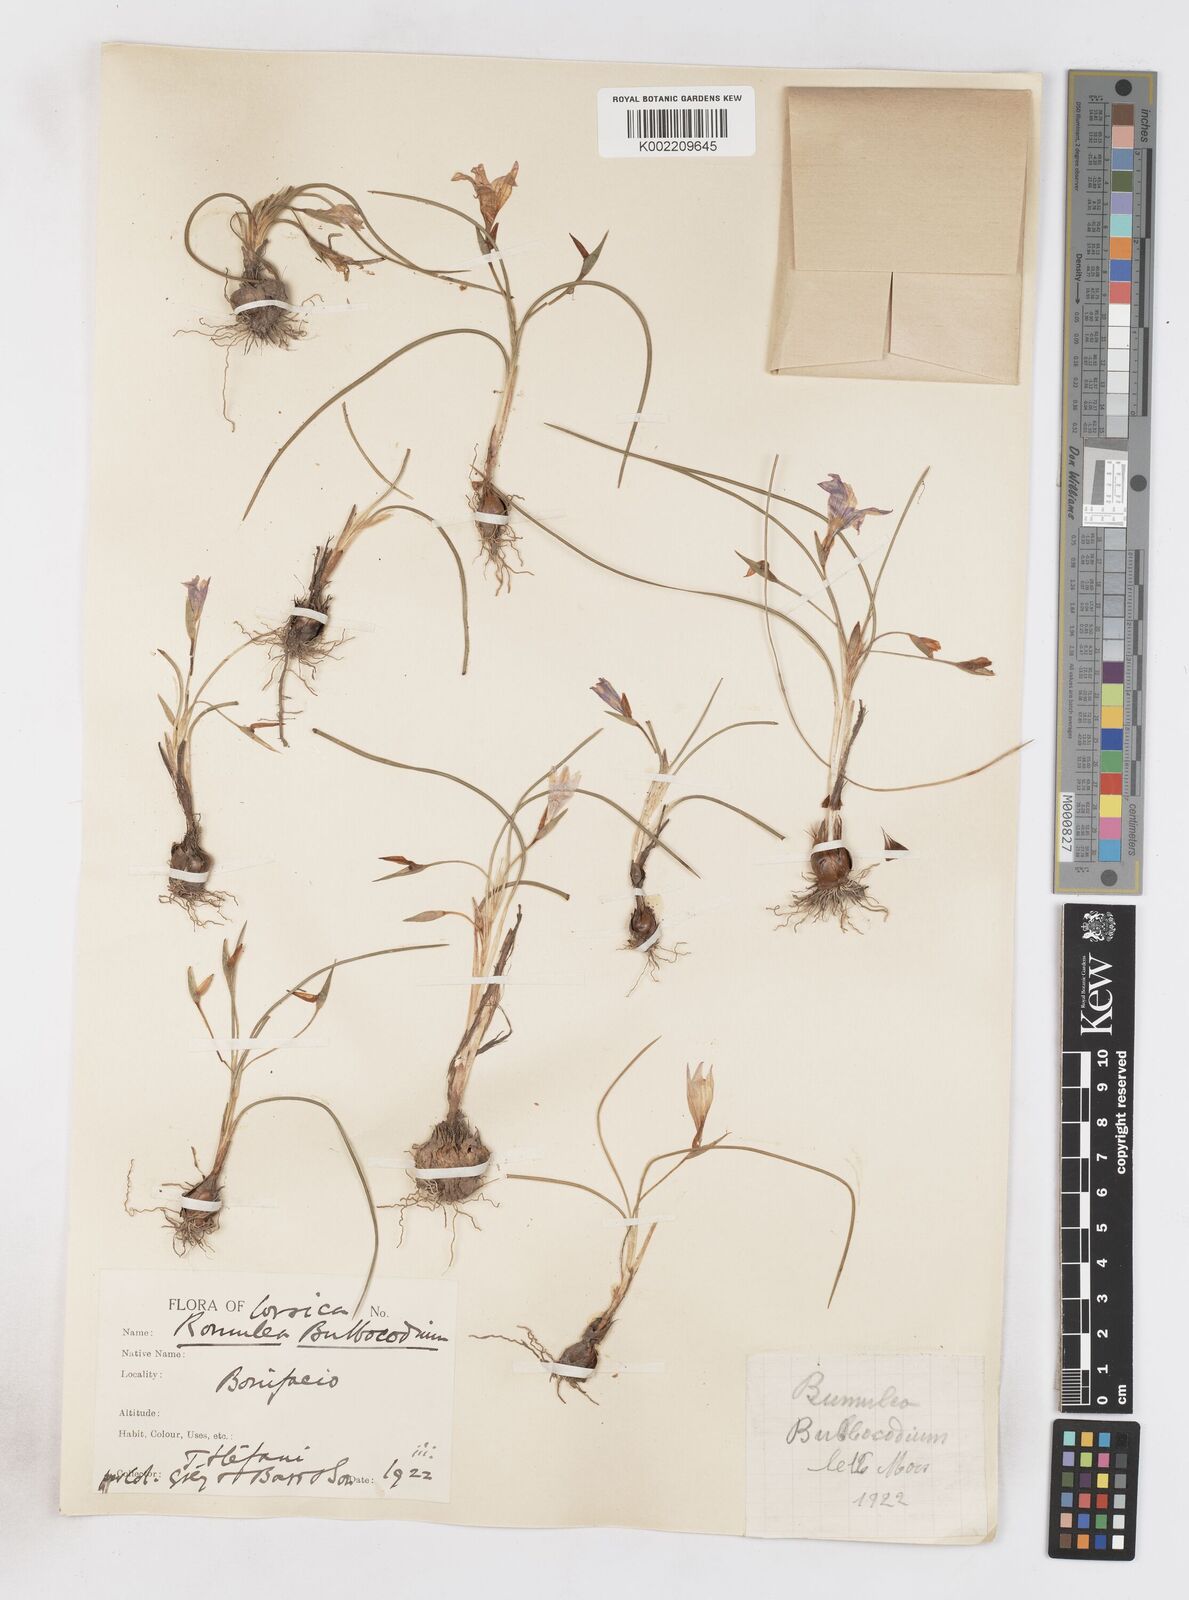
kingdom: Plantae
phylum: Tracheophyta
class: Liliopsida
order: Asparagales
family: Iridaceae
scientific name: Iridaceae
